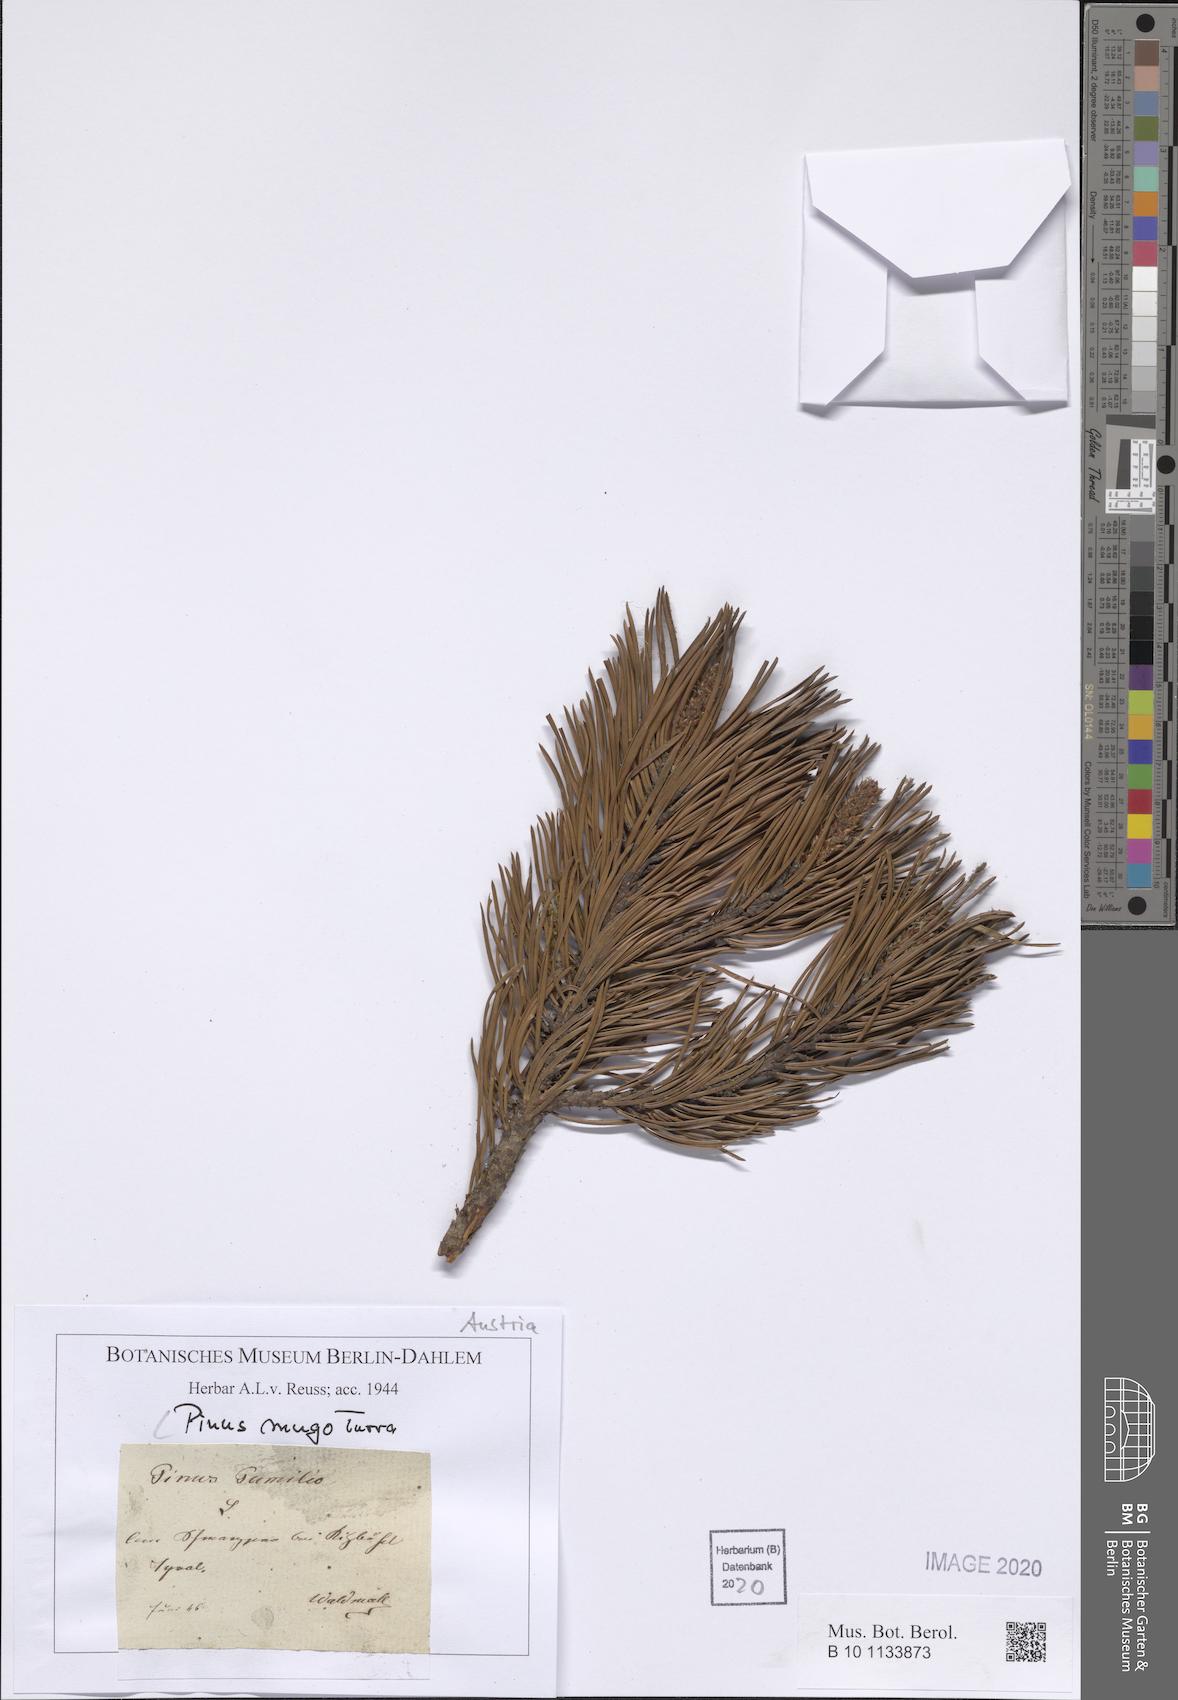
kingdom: Plantae
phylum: Tracheophyta
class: Pinopsida
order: Pinales
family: Pinaceae
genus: Pinus
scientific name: Pinus mugo
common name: Mugo pine
